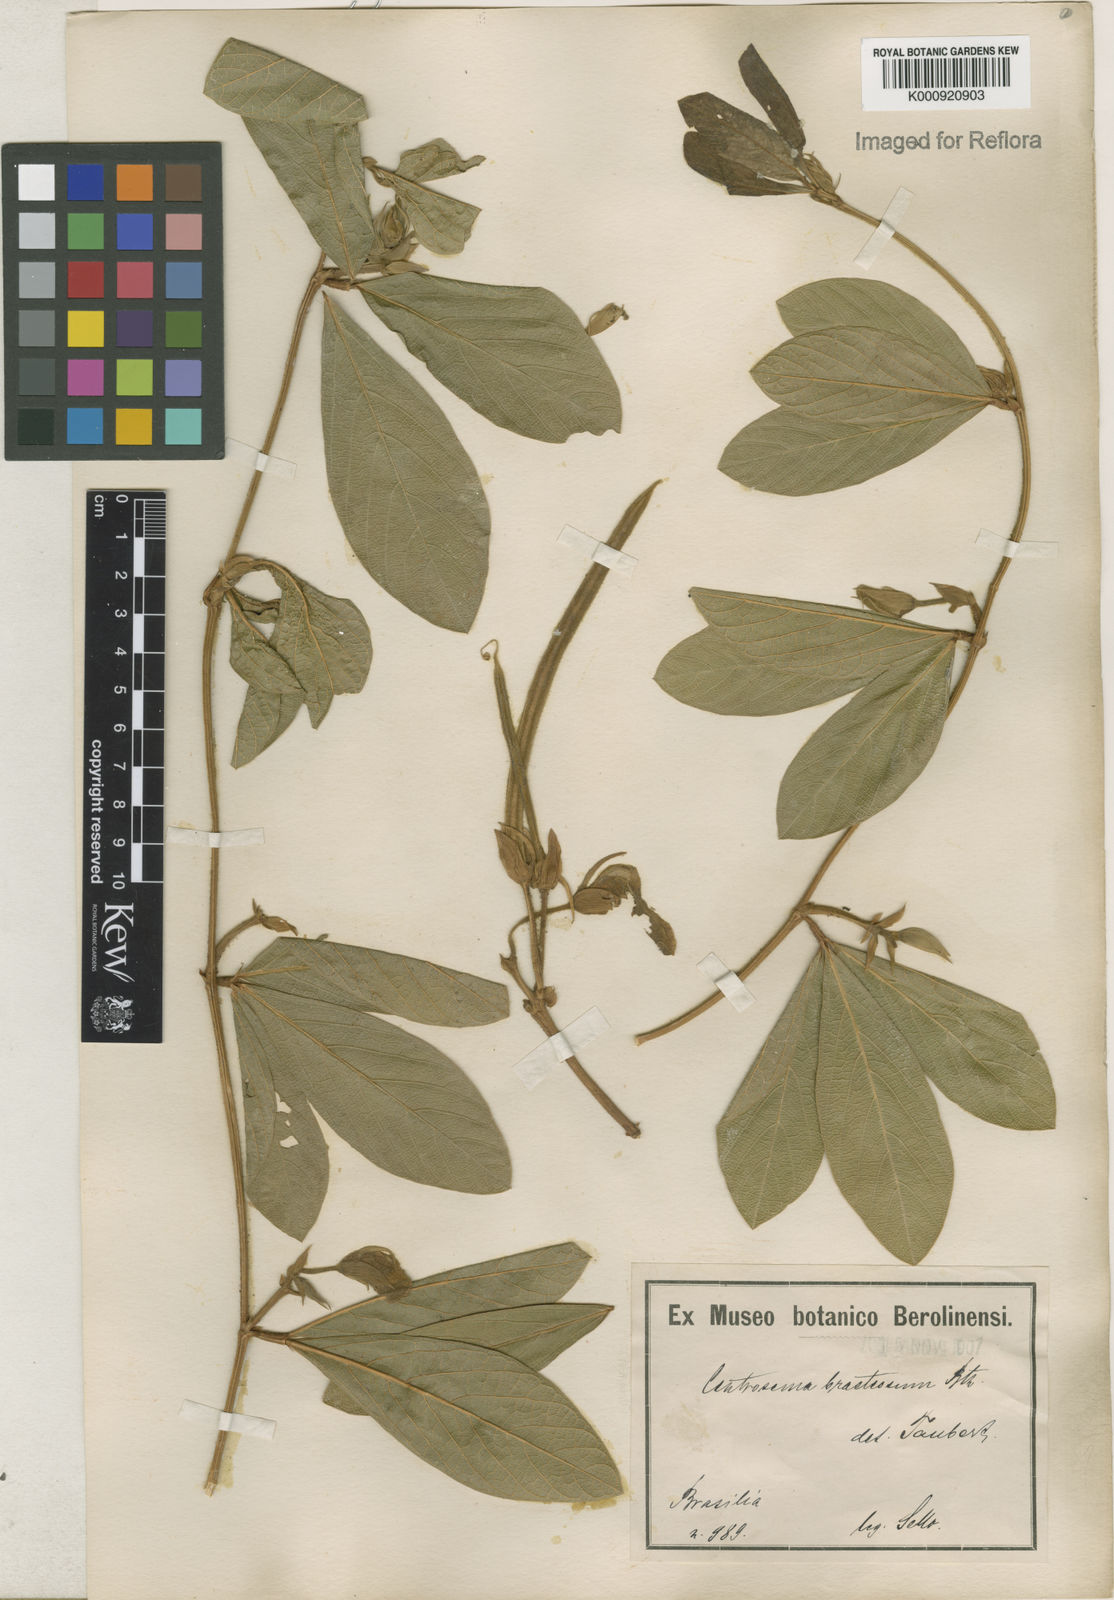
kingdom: Plantae
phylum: Tracheophyta
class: Magnoliopsida
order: Fabales
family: Fabaceae
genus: Centrosema
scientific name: Centrosema bracteosum
